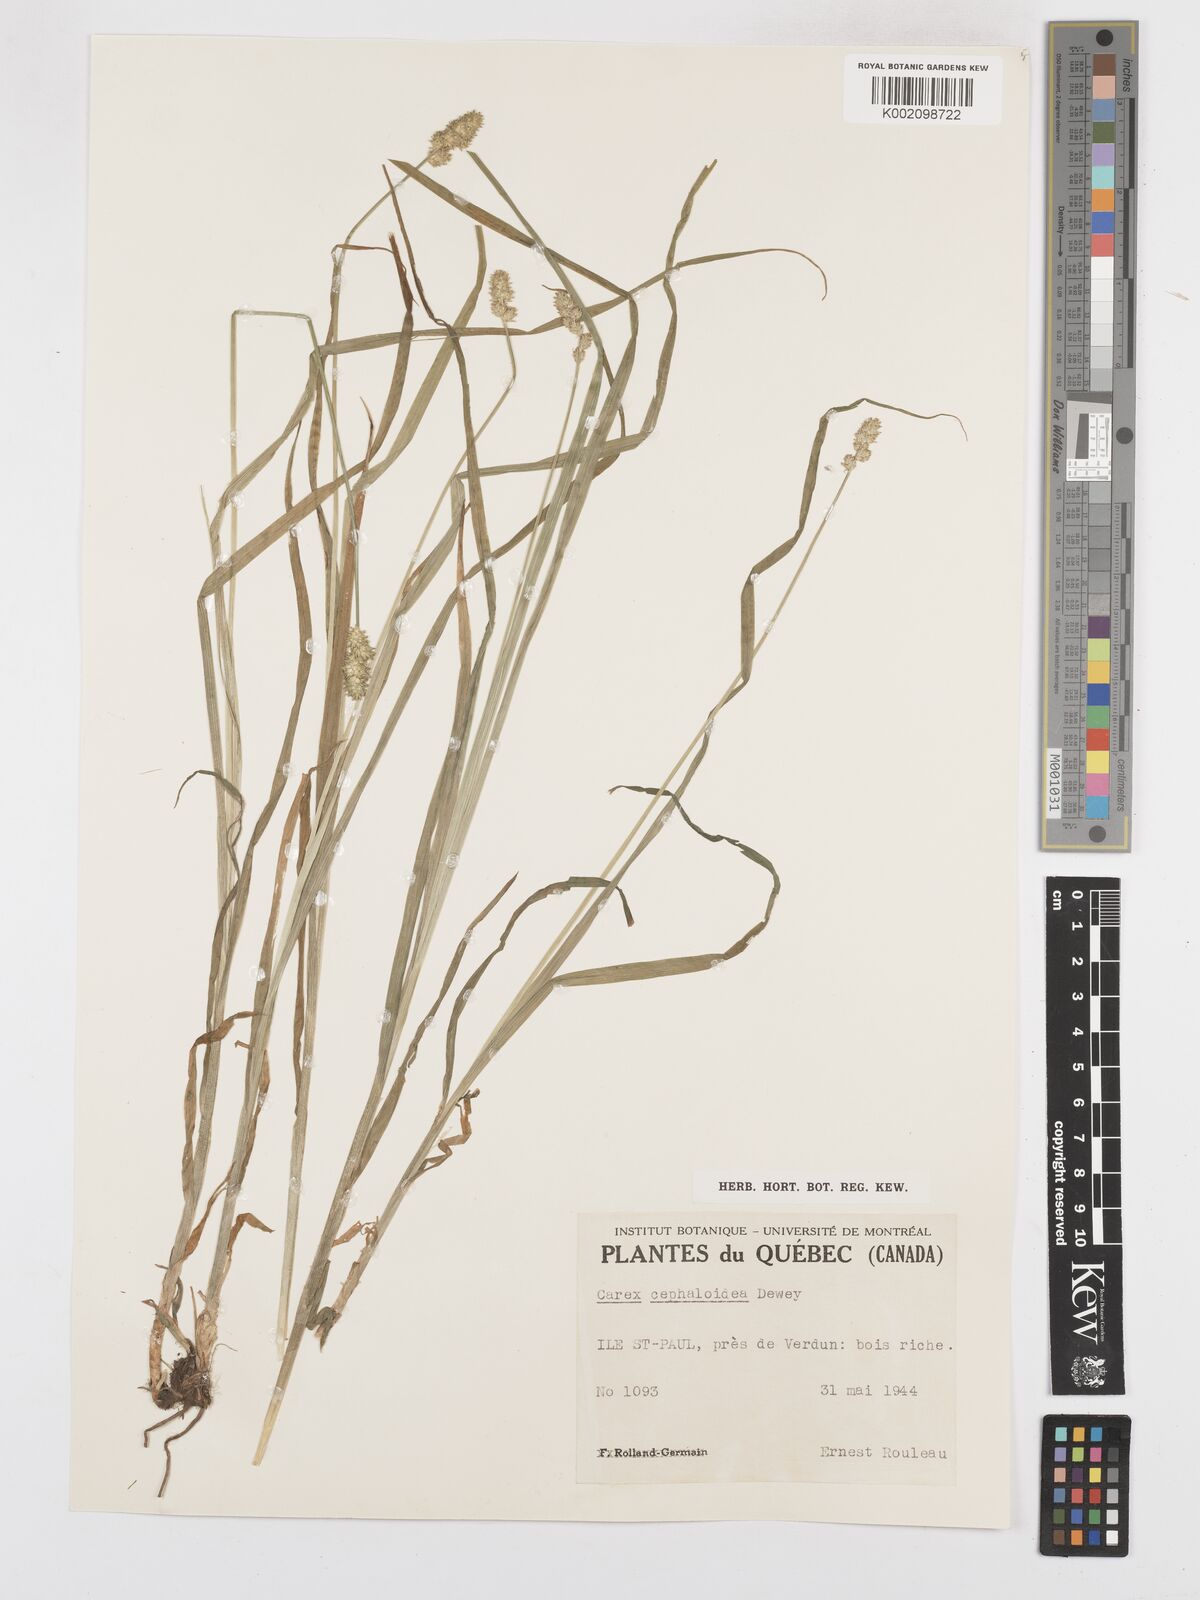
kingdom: Plantae
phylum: Tracheophyta
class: Liliopsida
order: Poales
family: Cyperaceae
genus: Carex
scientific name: Carex cephaloidea
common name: Thin-leaved sedge
